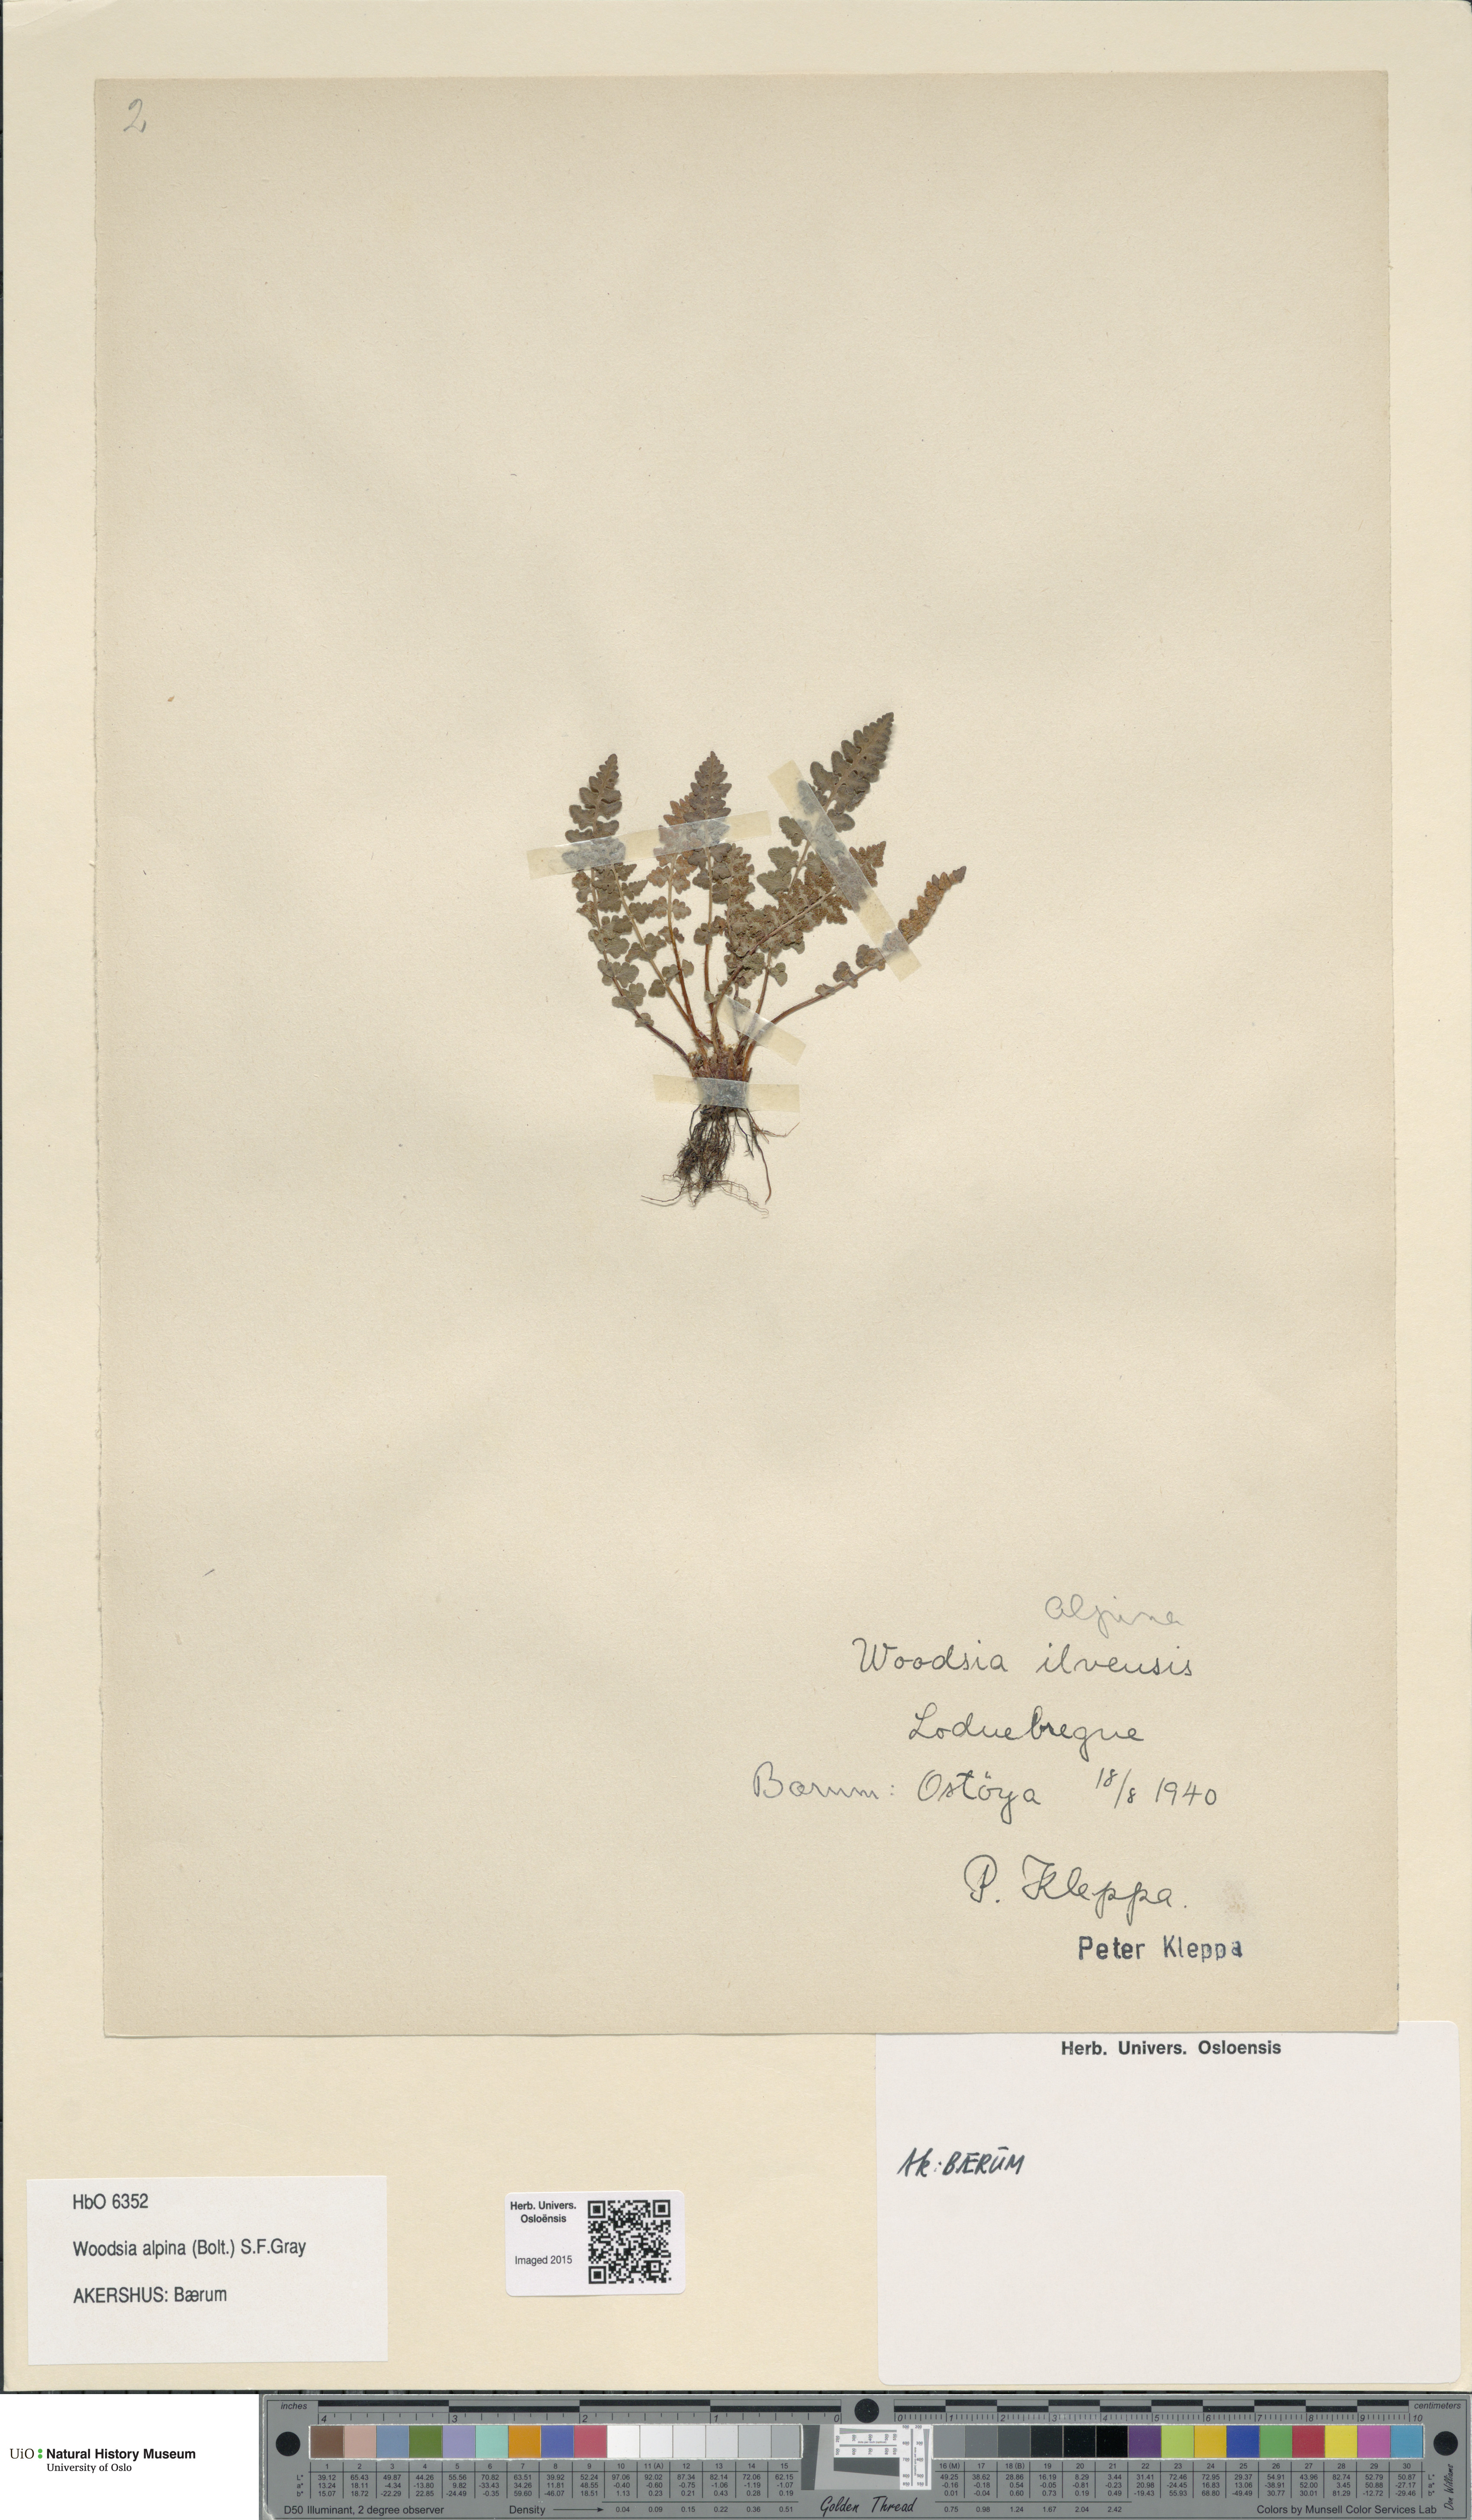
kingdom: Plantae
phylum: Tracheophyta
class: Polypodiopsida
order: Polypodiales
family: Woodsiaceae
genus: Woodsia
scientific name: Woodsia alpina
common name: Alpine woodsia
